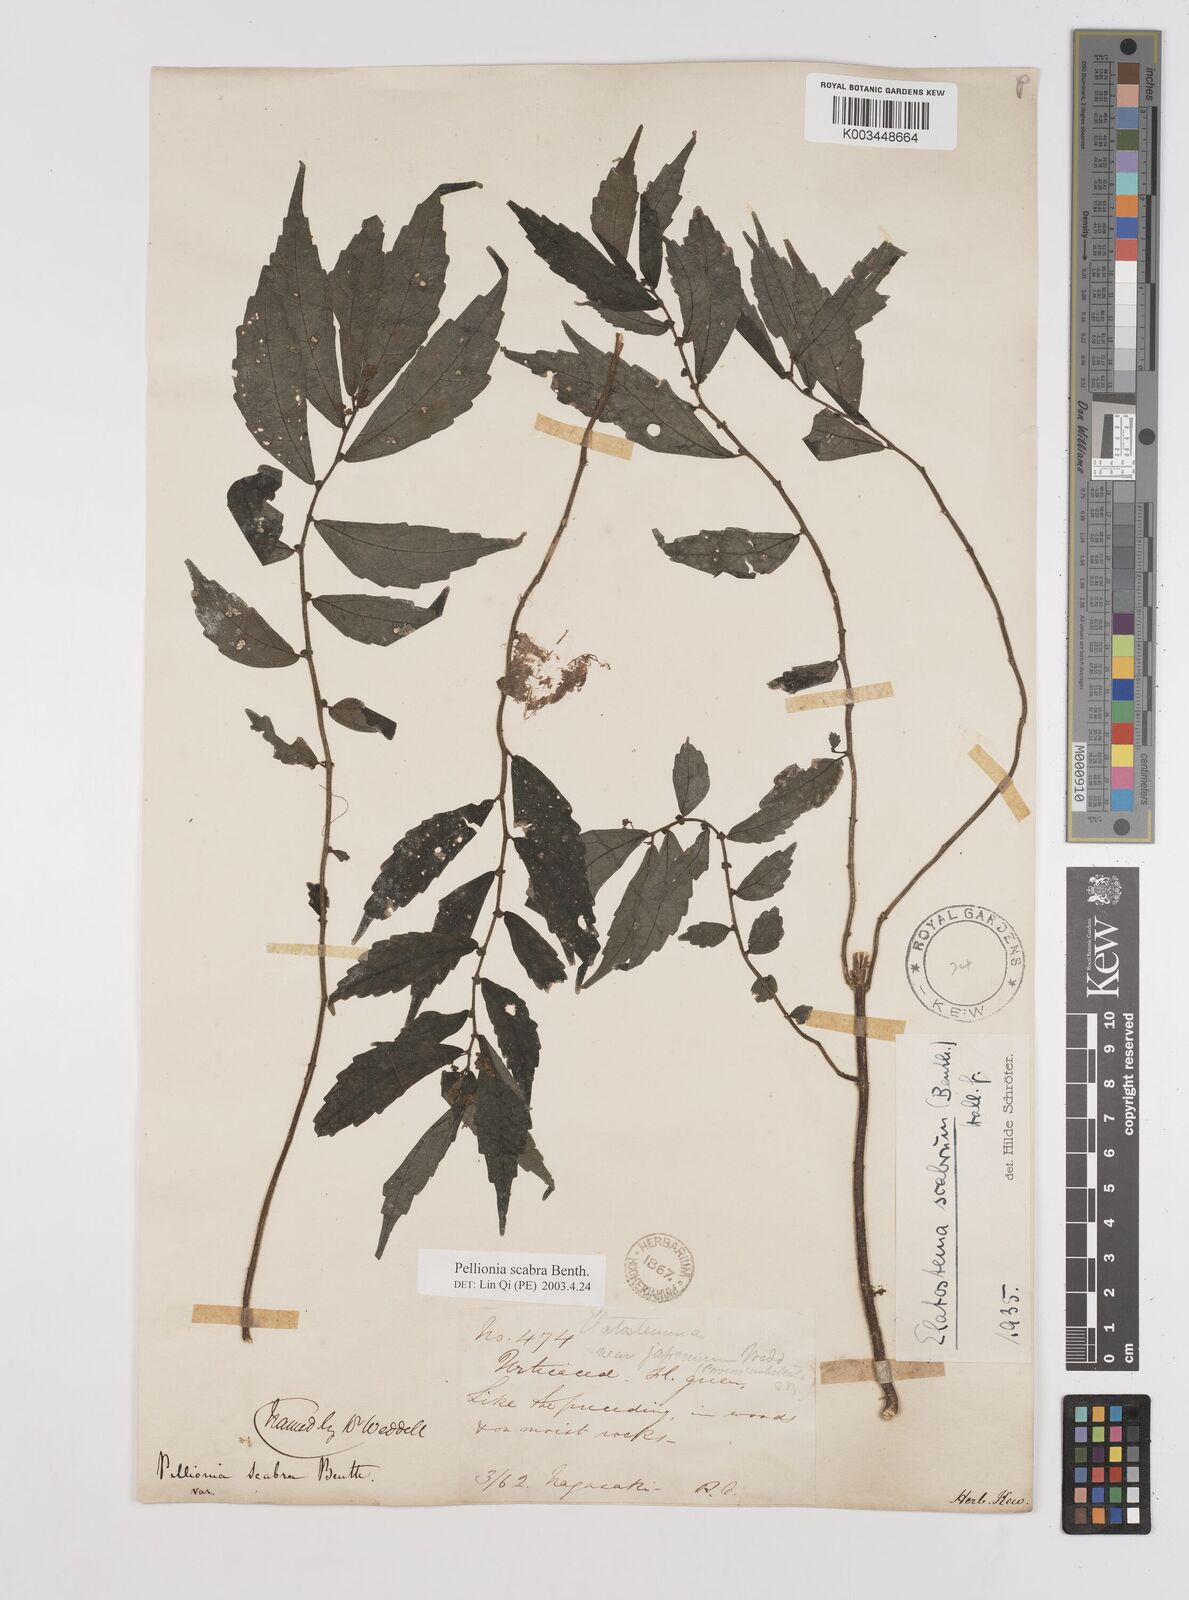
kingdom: Plantae
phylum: Tracheophyta
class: Magnoliopsida
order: Rosales
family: Urticaceae
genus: Elatostema
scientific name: Elatostema
